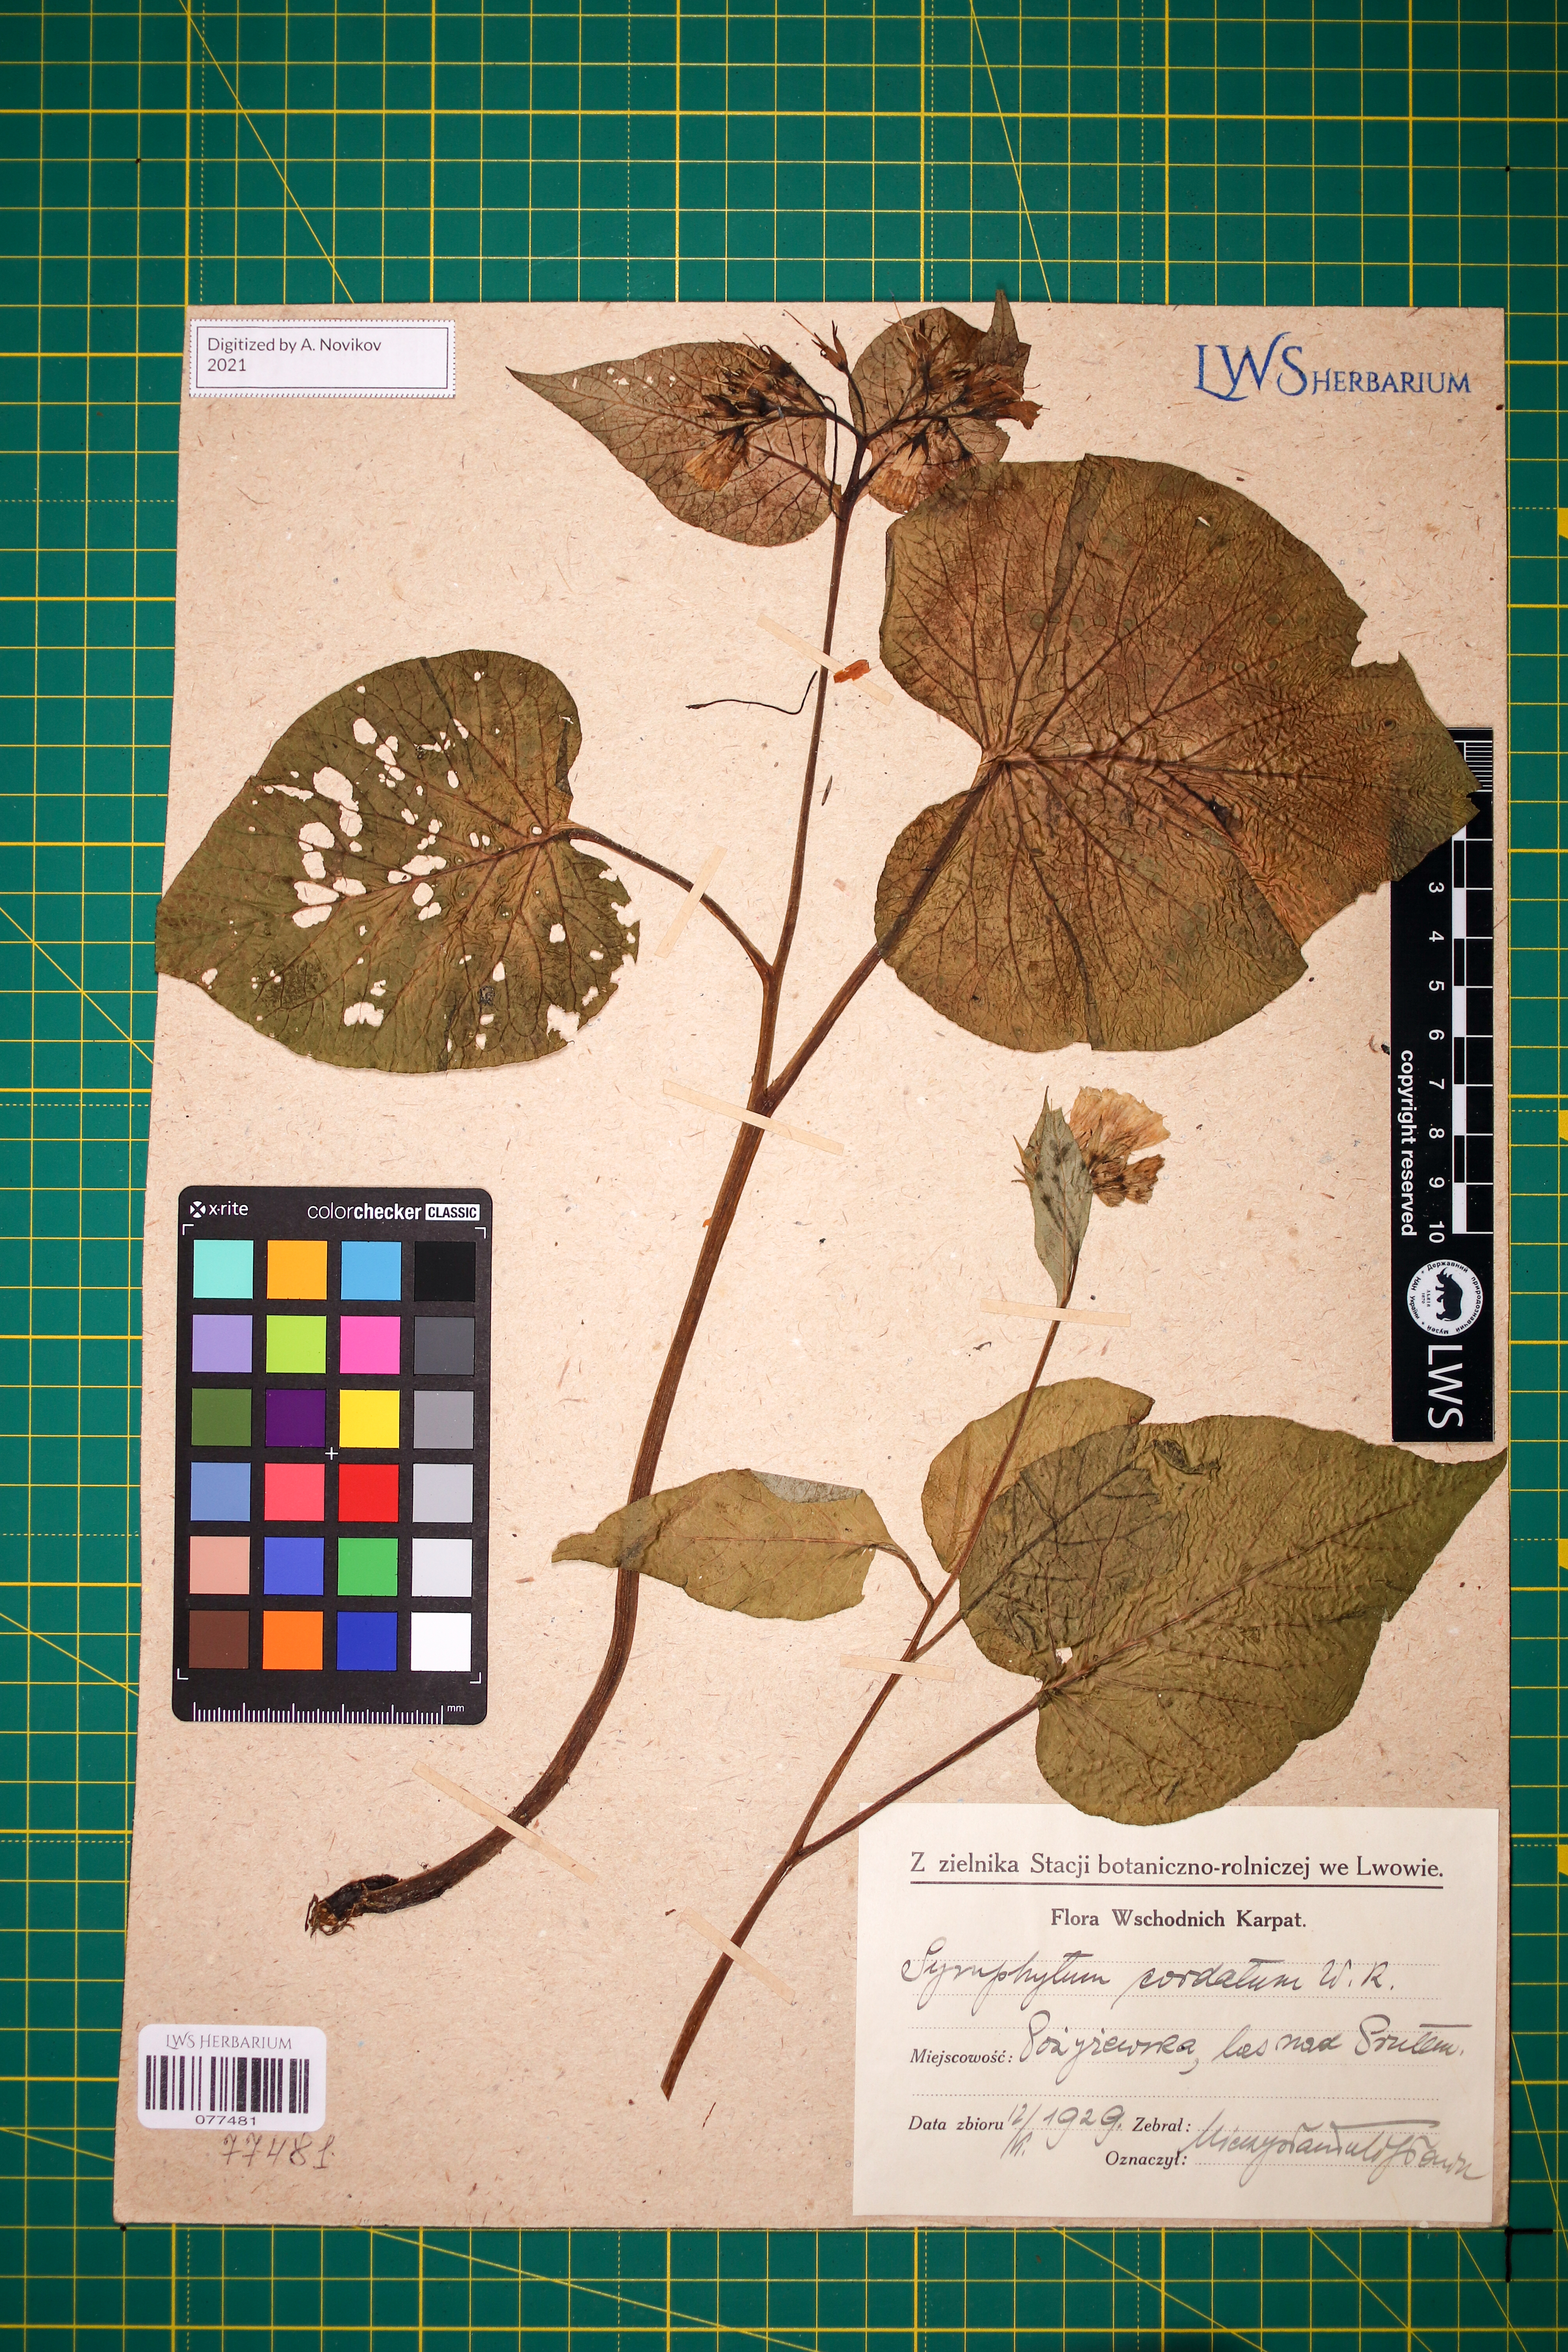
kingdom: Plantae
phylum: Tracheophyta
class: Magnoliopsida
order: Boraginales
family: Boraginaceae
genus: Symphytum
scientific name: Symphytum cordatum
